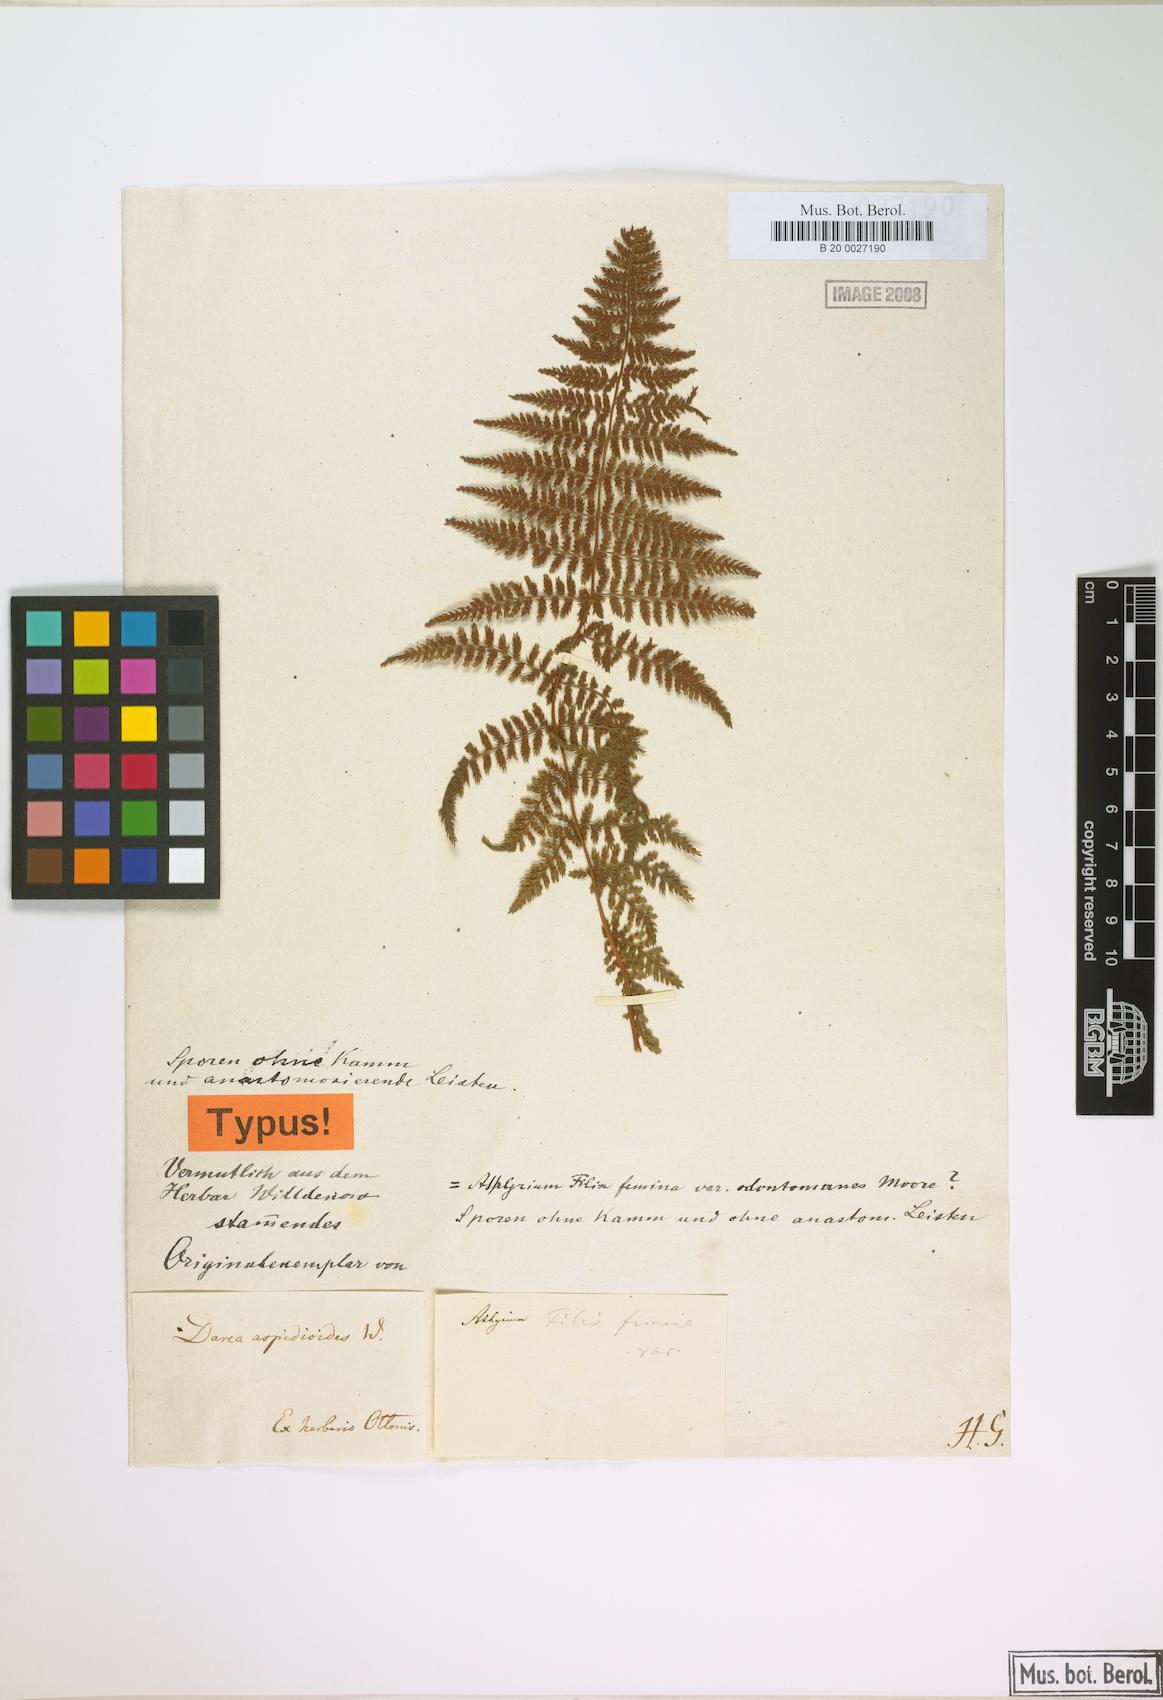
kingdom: Plantae
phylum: Tracheophyta
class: Polypodiopsida
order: Polypodiales
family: Athyriaceae
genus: Athyrium
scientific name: Athyrium scandicinum
